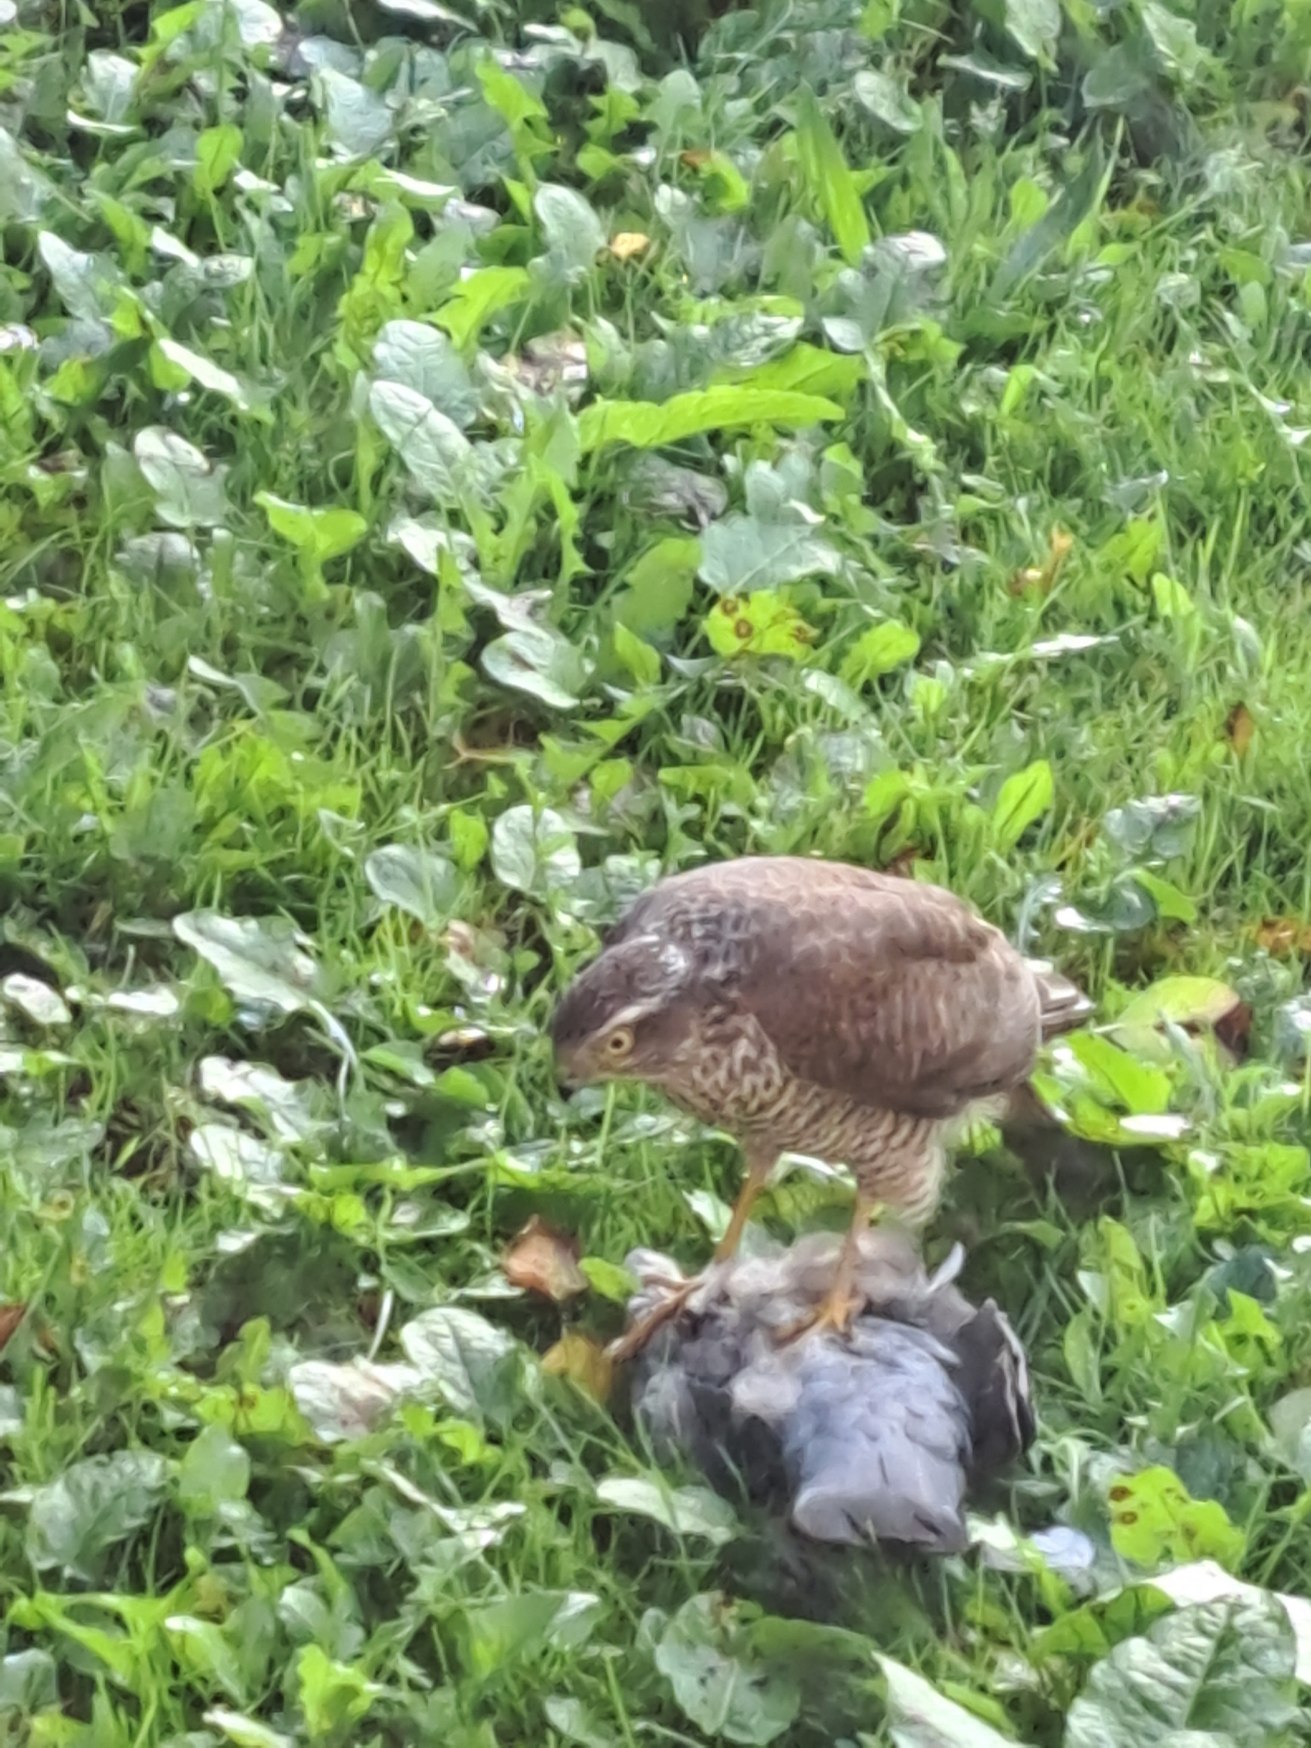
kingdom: Animalia
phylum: Chordata
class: Aves
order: Accipitriformes
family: Accipitridae
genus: Accipiter
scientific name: Accipiter nisus
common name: Spurvehøg
